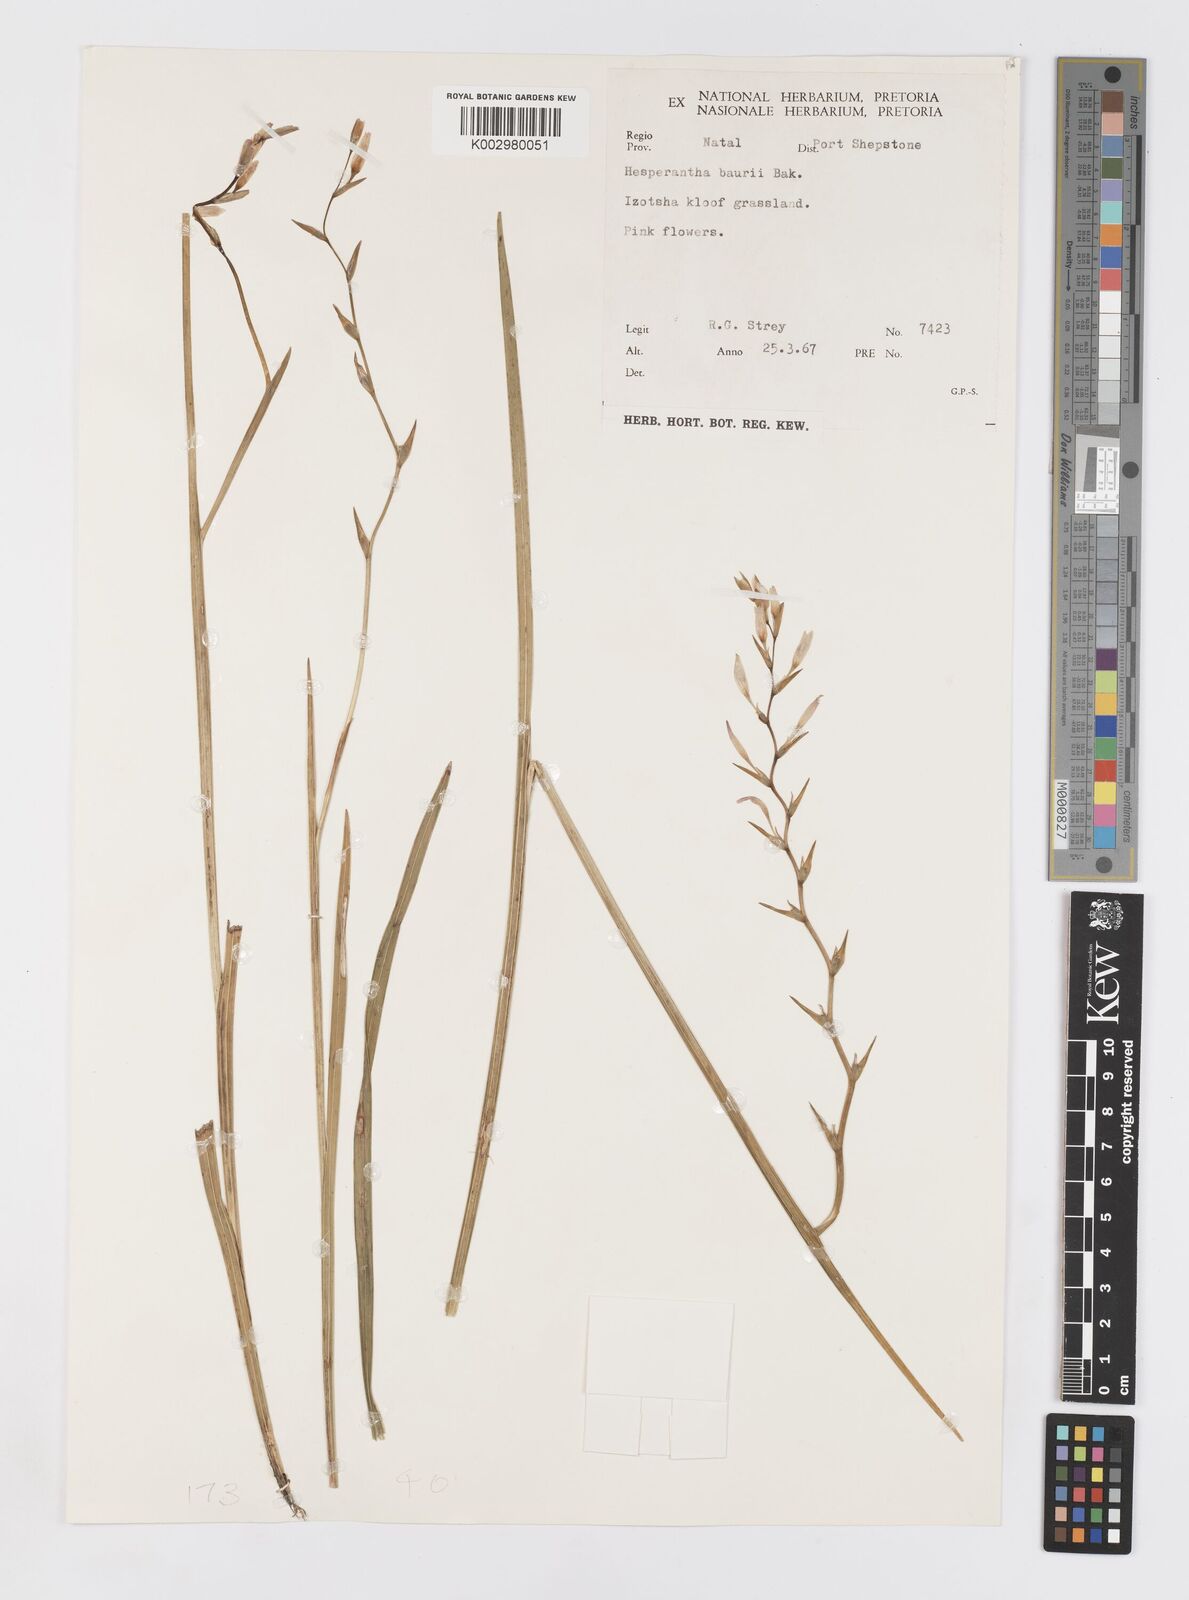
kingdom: Plantae
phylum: Tracheophyta
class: Liliopsida
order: Asparagales
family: Iridaceae
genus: Hesperantha
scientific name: Hesperantha baurii
